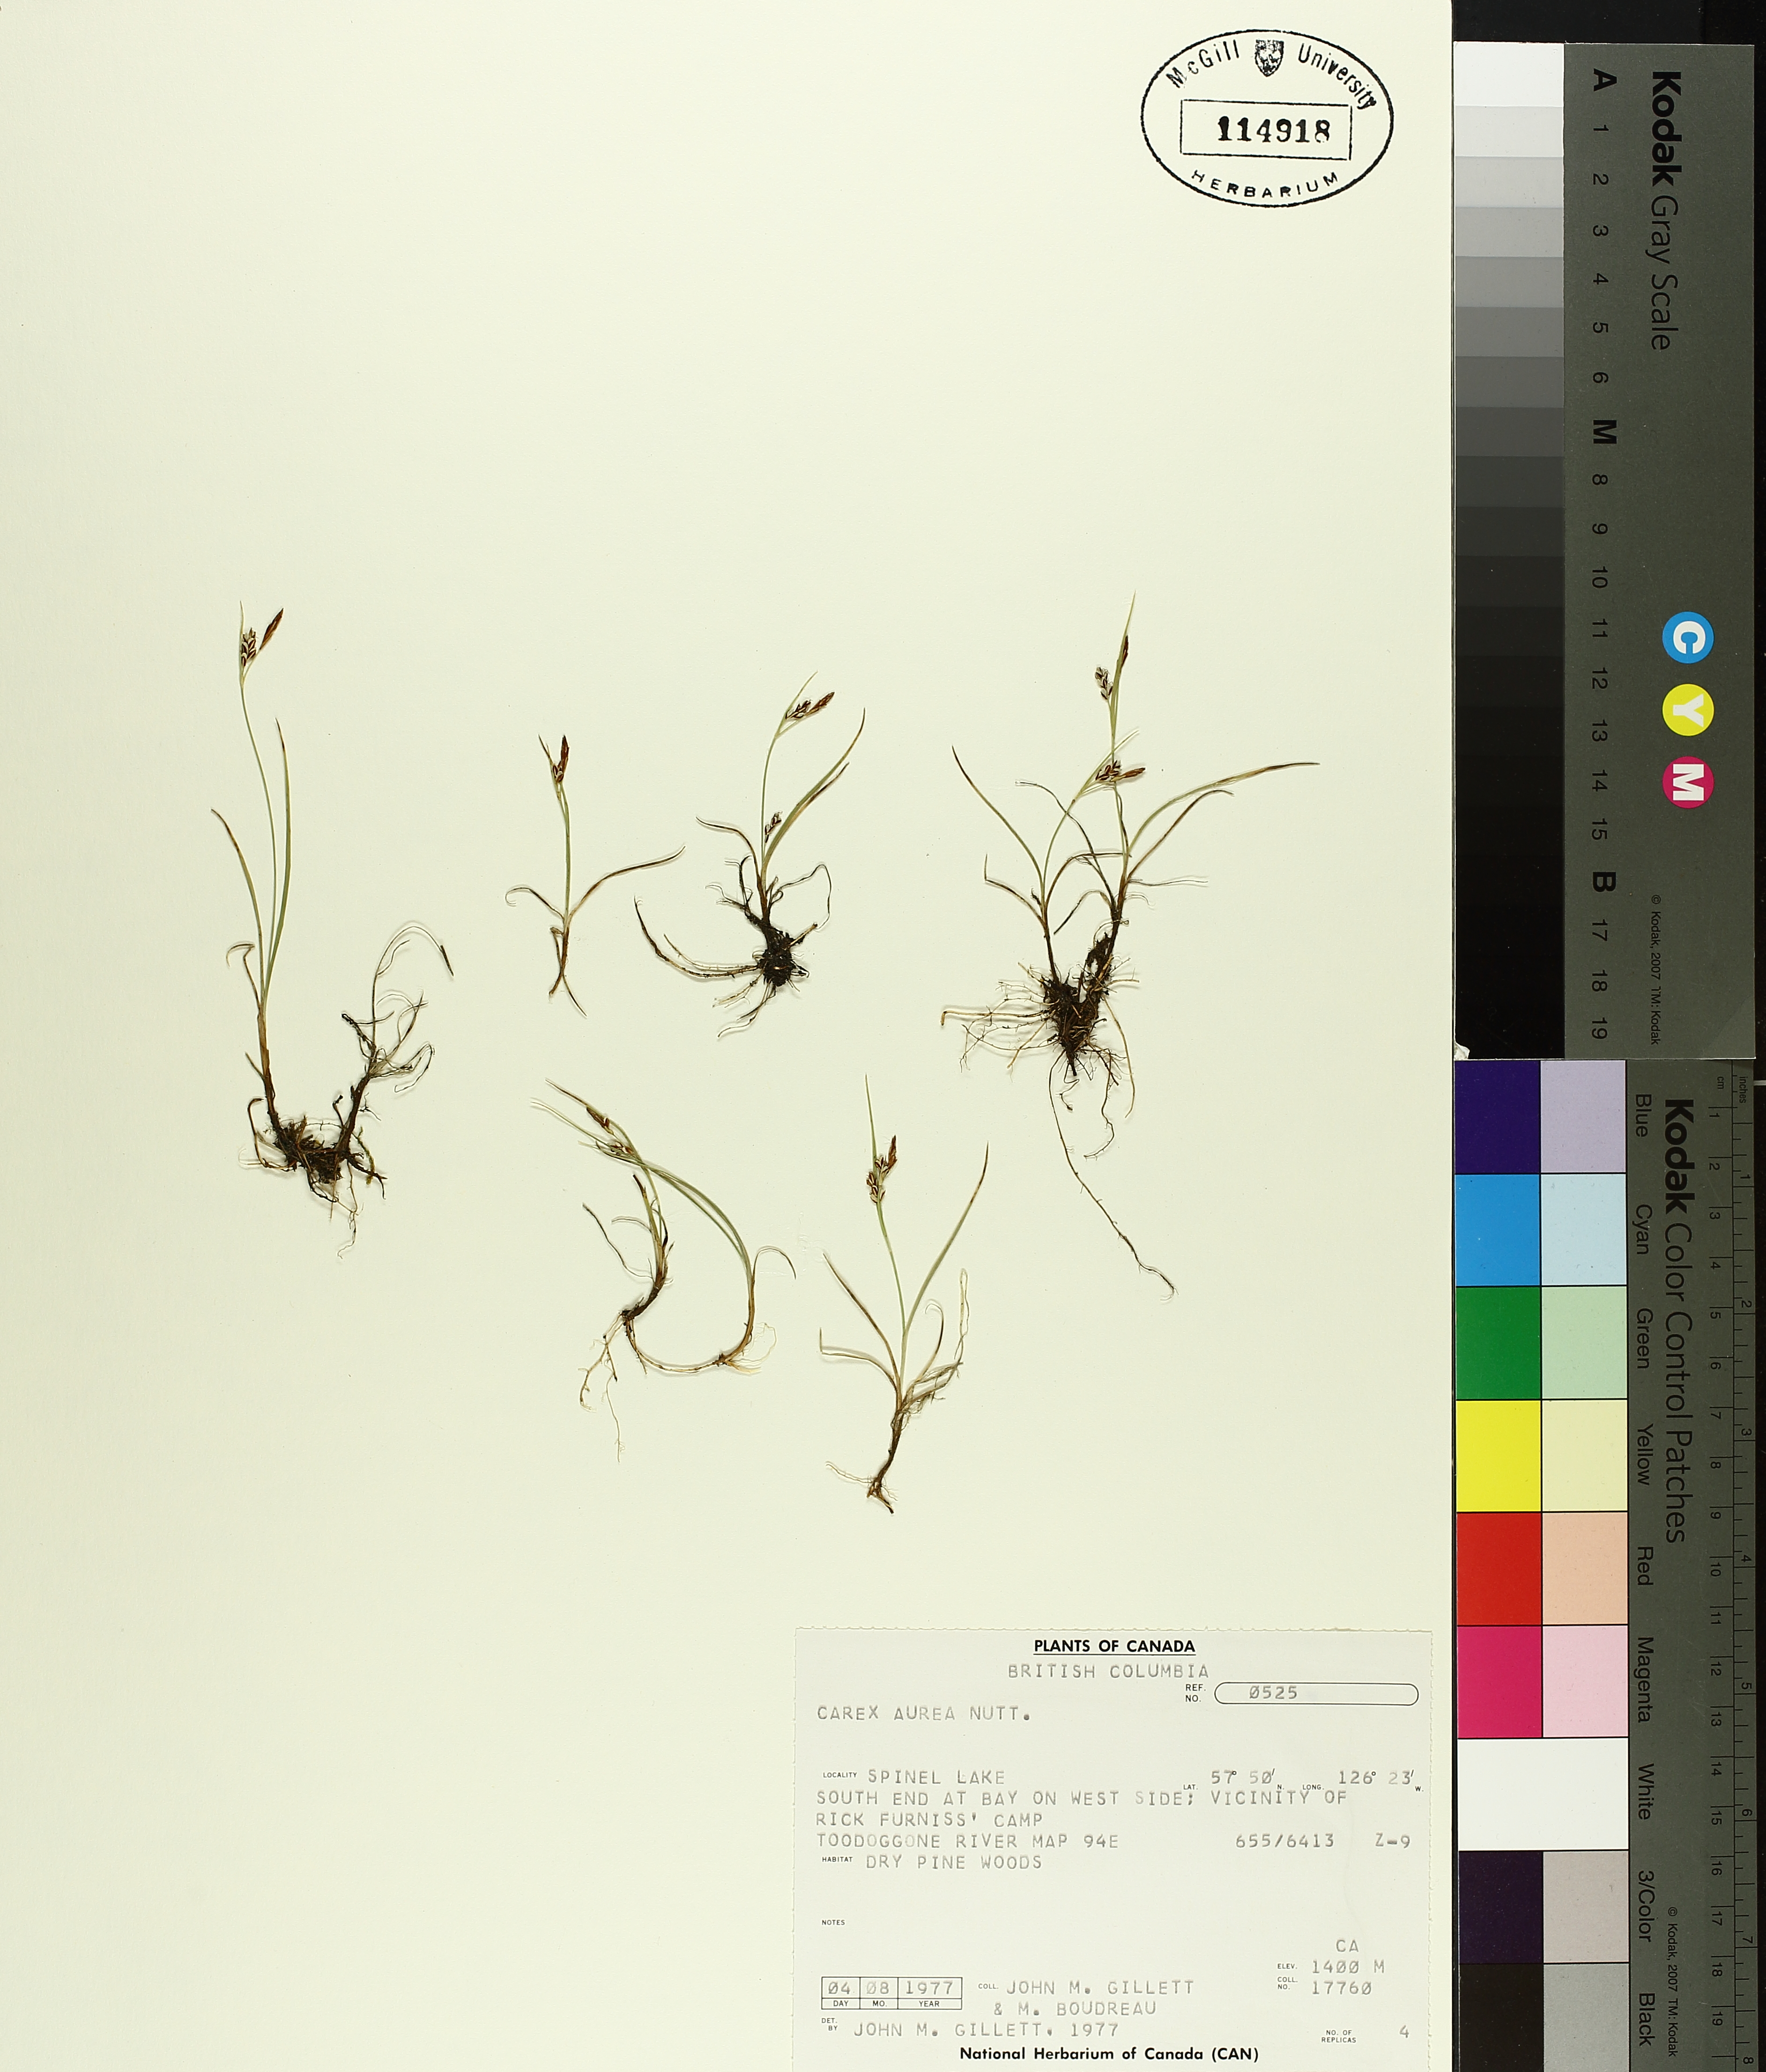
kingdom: Plantae
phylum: Tracheophyta
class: Liliopsida
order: Poales
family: Cyperaceae
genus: Carex
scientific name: Carex aurea
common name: Golden sedge
